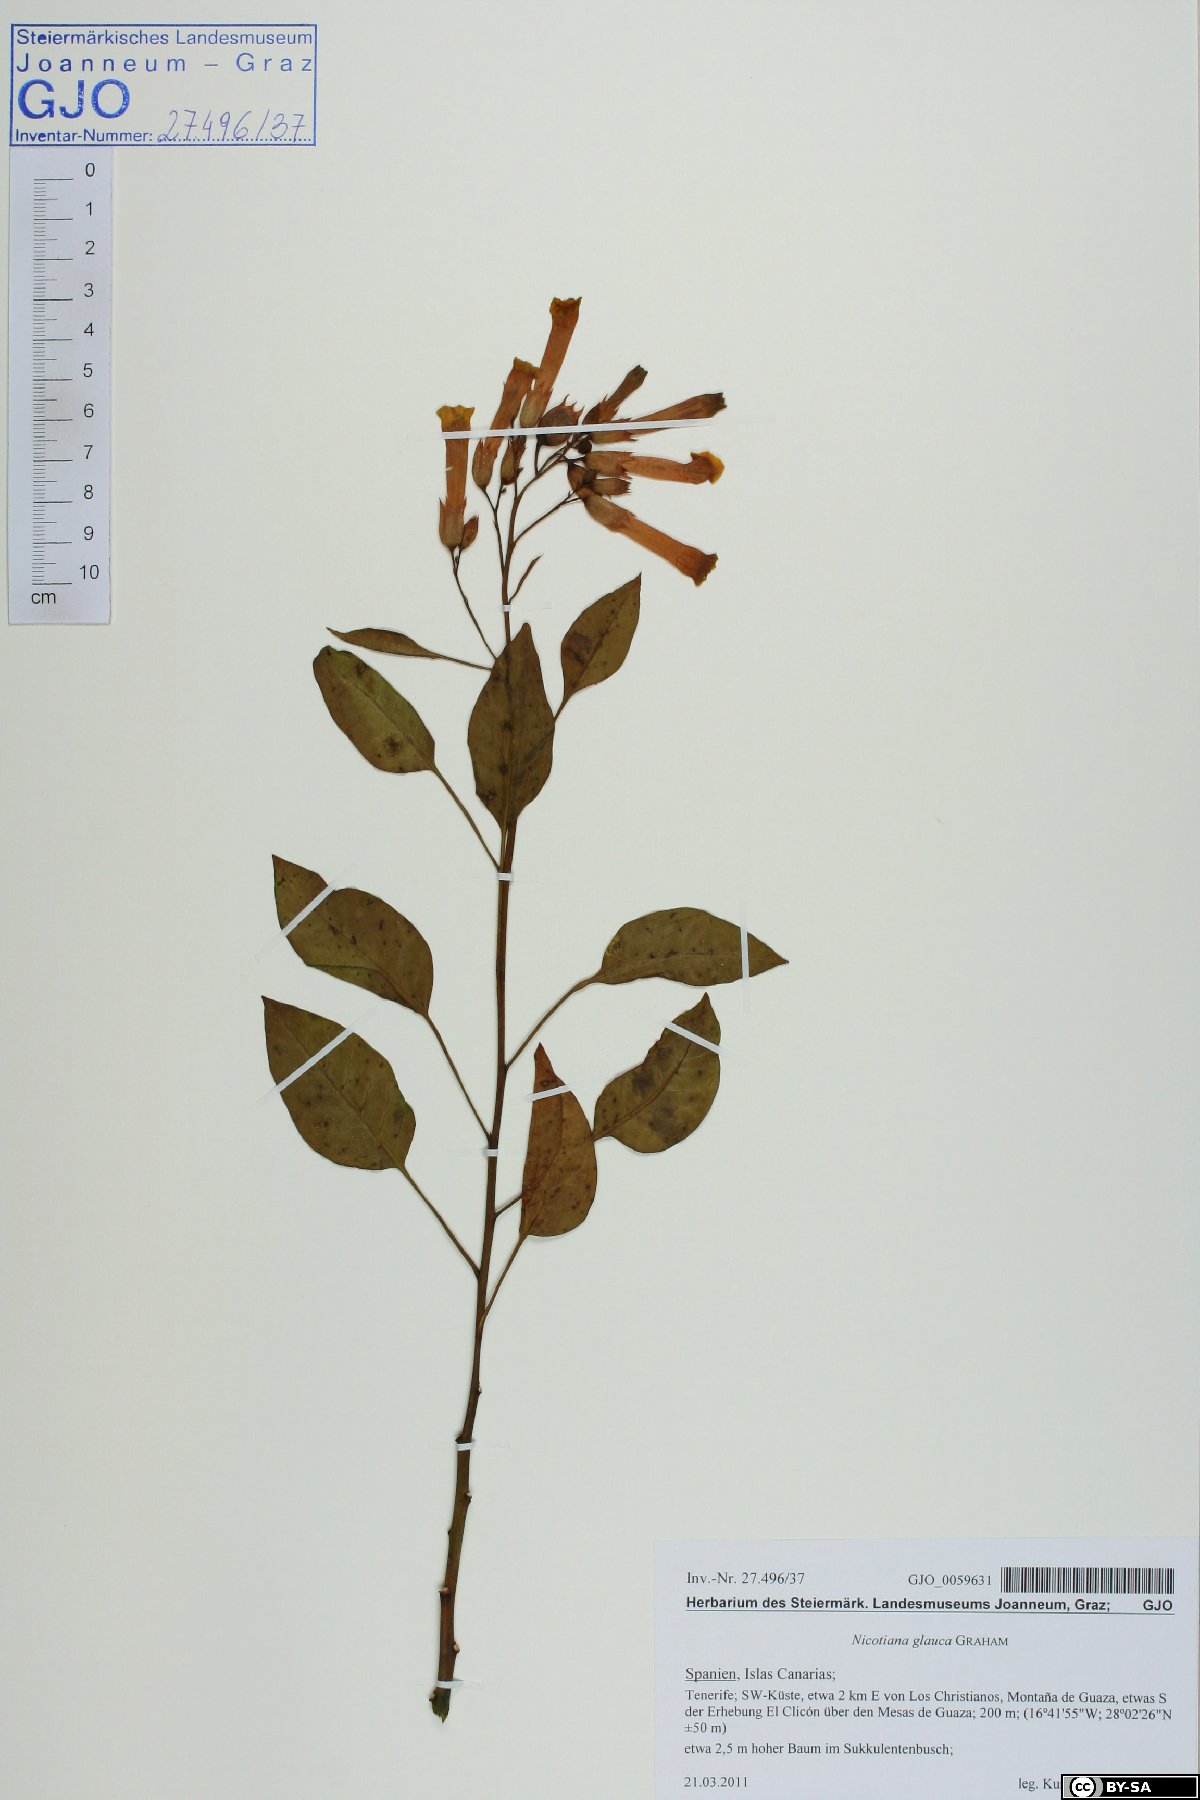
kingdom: Plantae
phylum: Tracheophyta
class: Magnoliopsida
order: Solanales
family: Solanaceae
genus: Nicotiana
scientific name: Nicotiana glauca
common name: Tree tobacco
